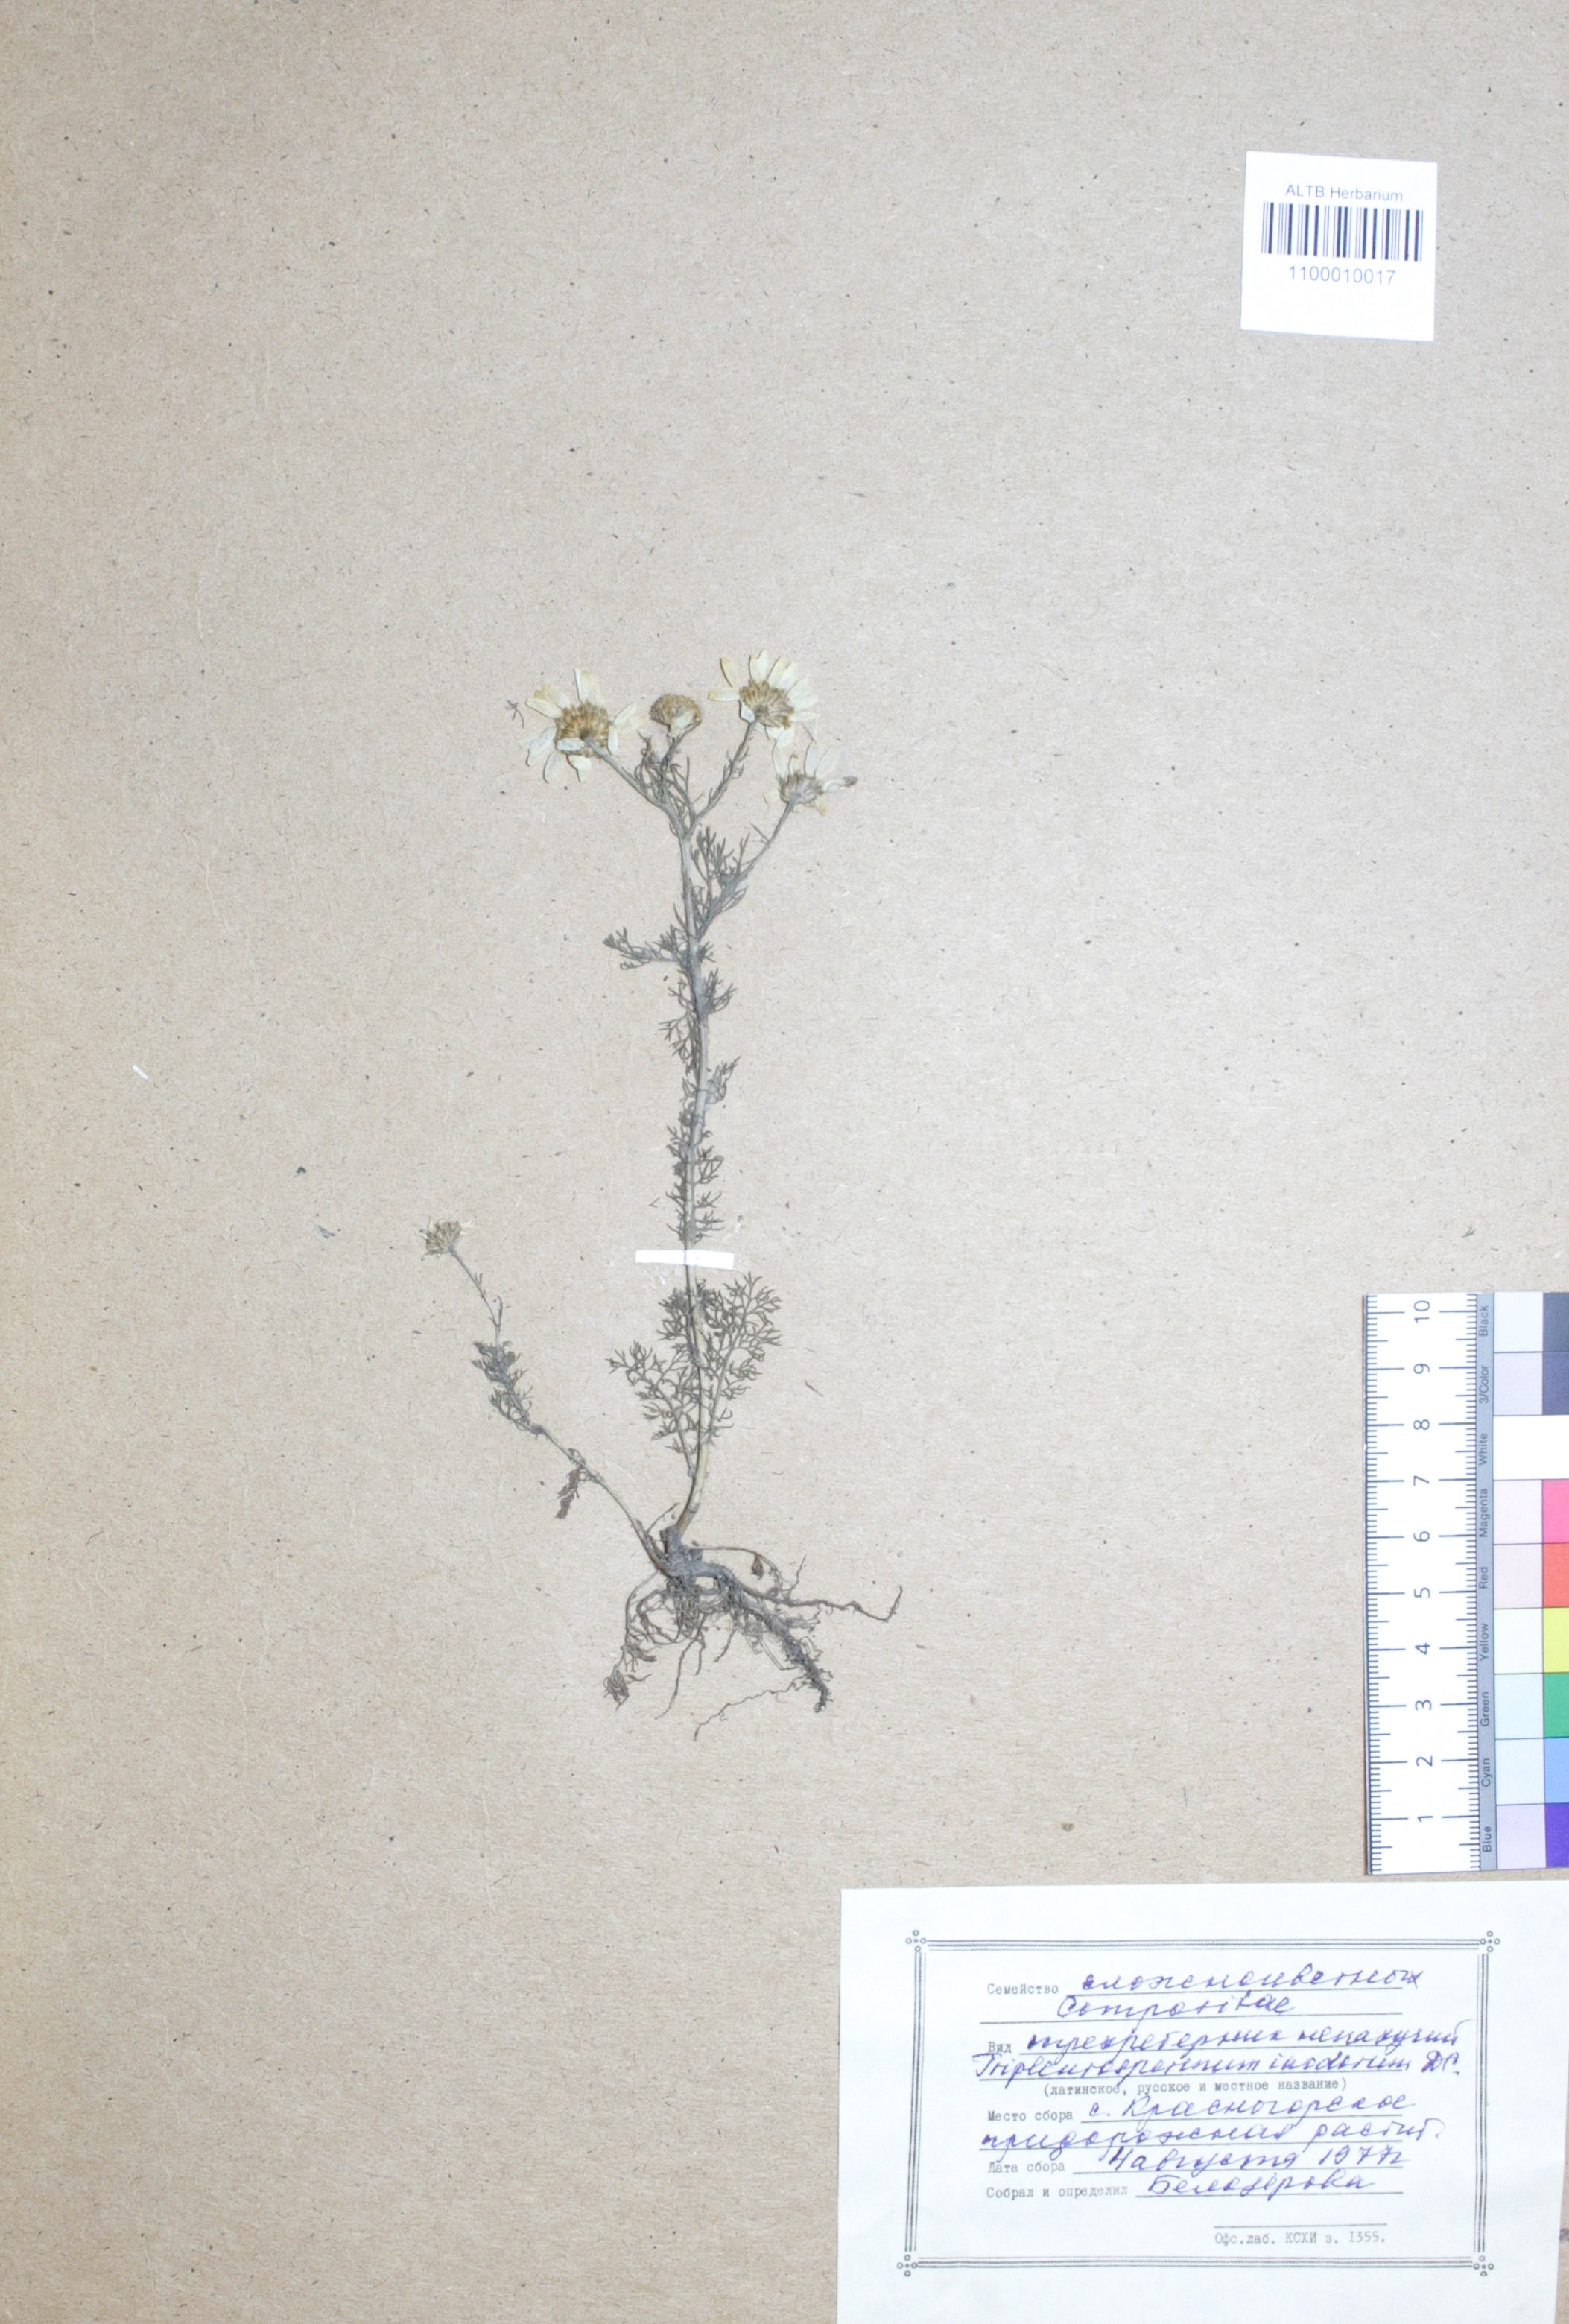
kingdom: Plantae
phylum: Tracheophyta
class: Magnoliopsida
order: Asterales
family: Asteraceae
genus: Tripleurospermum
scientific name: Tripleurospermum inodorum
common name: Scentless mayweed
